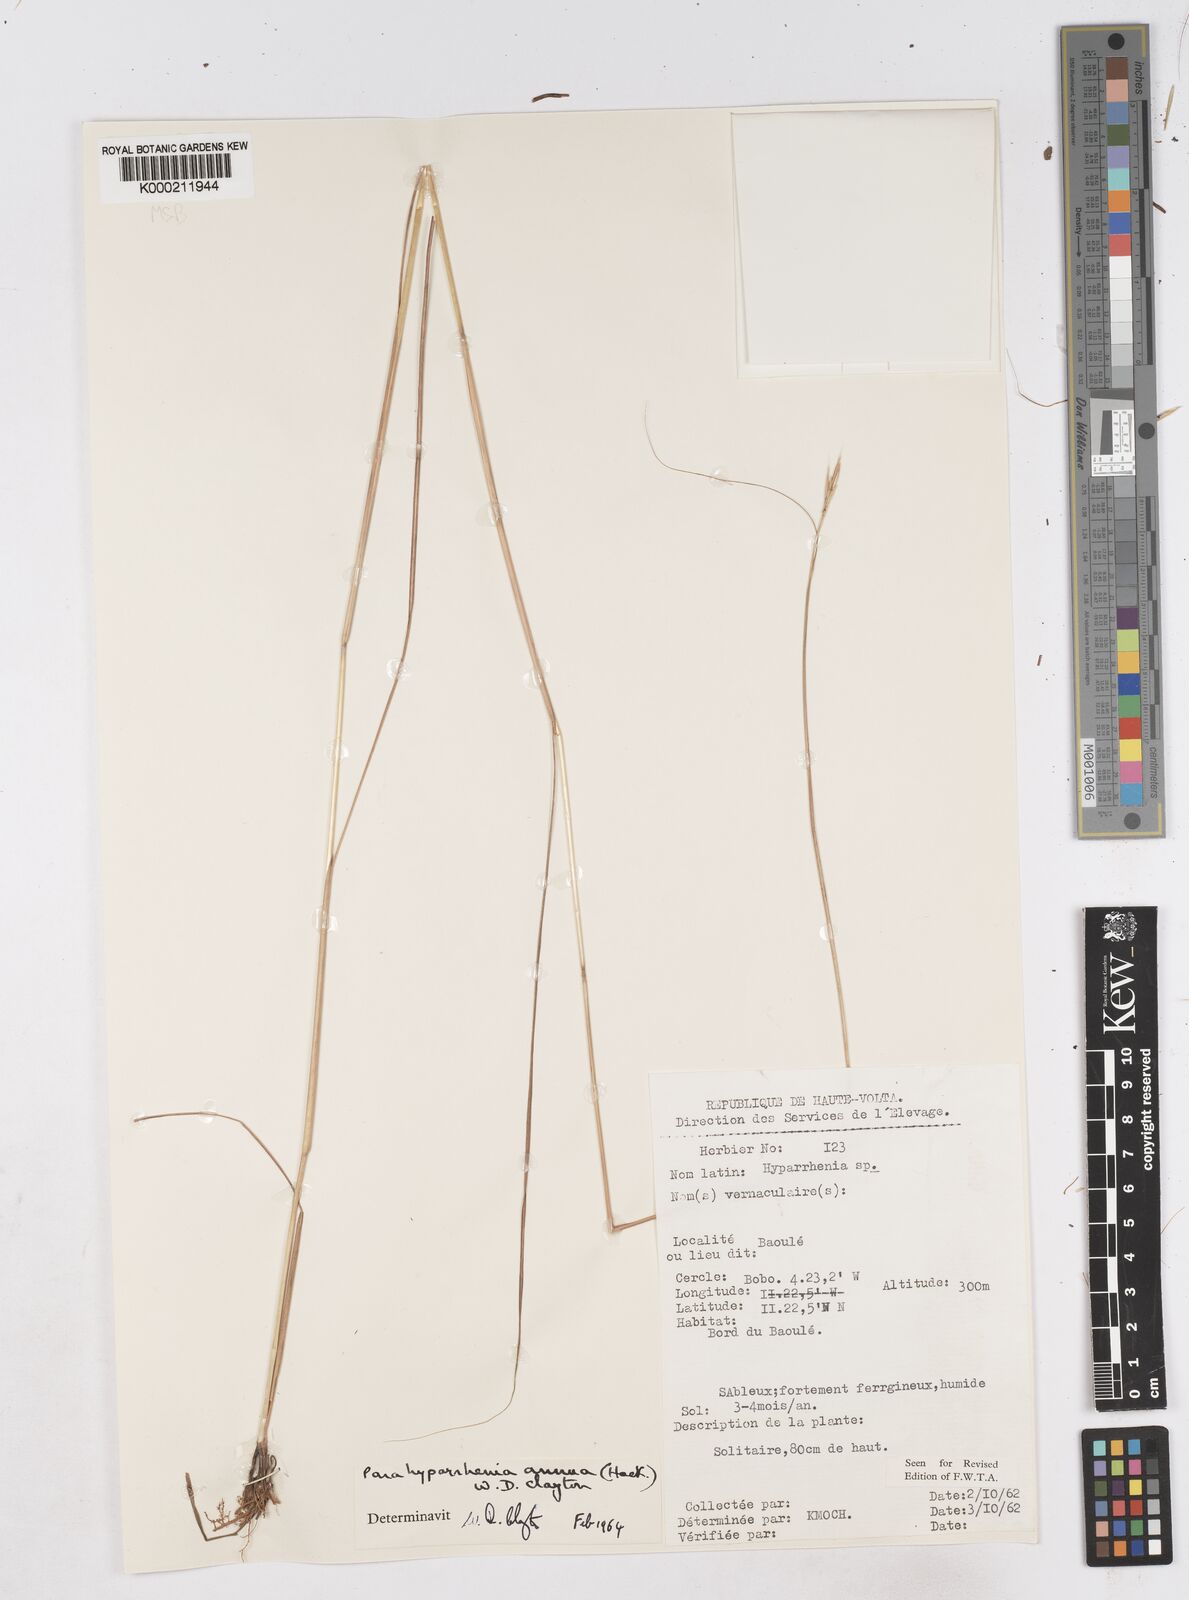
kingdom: Plantae
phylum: Tracheophyta
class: Liliopsida
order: Poales
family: Poaceae
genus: Parahyparrhenia
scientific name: Parahyparrhenia annua
